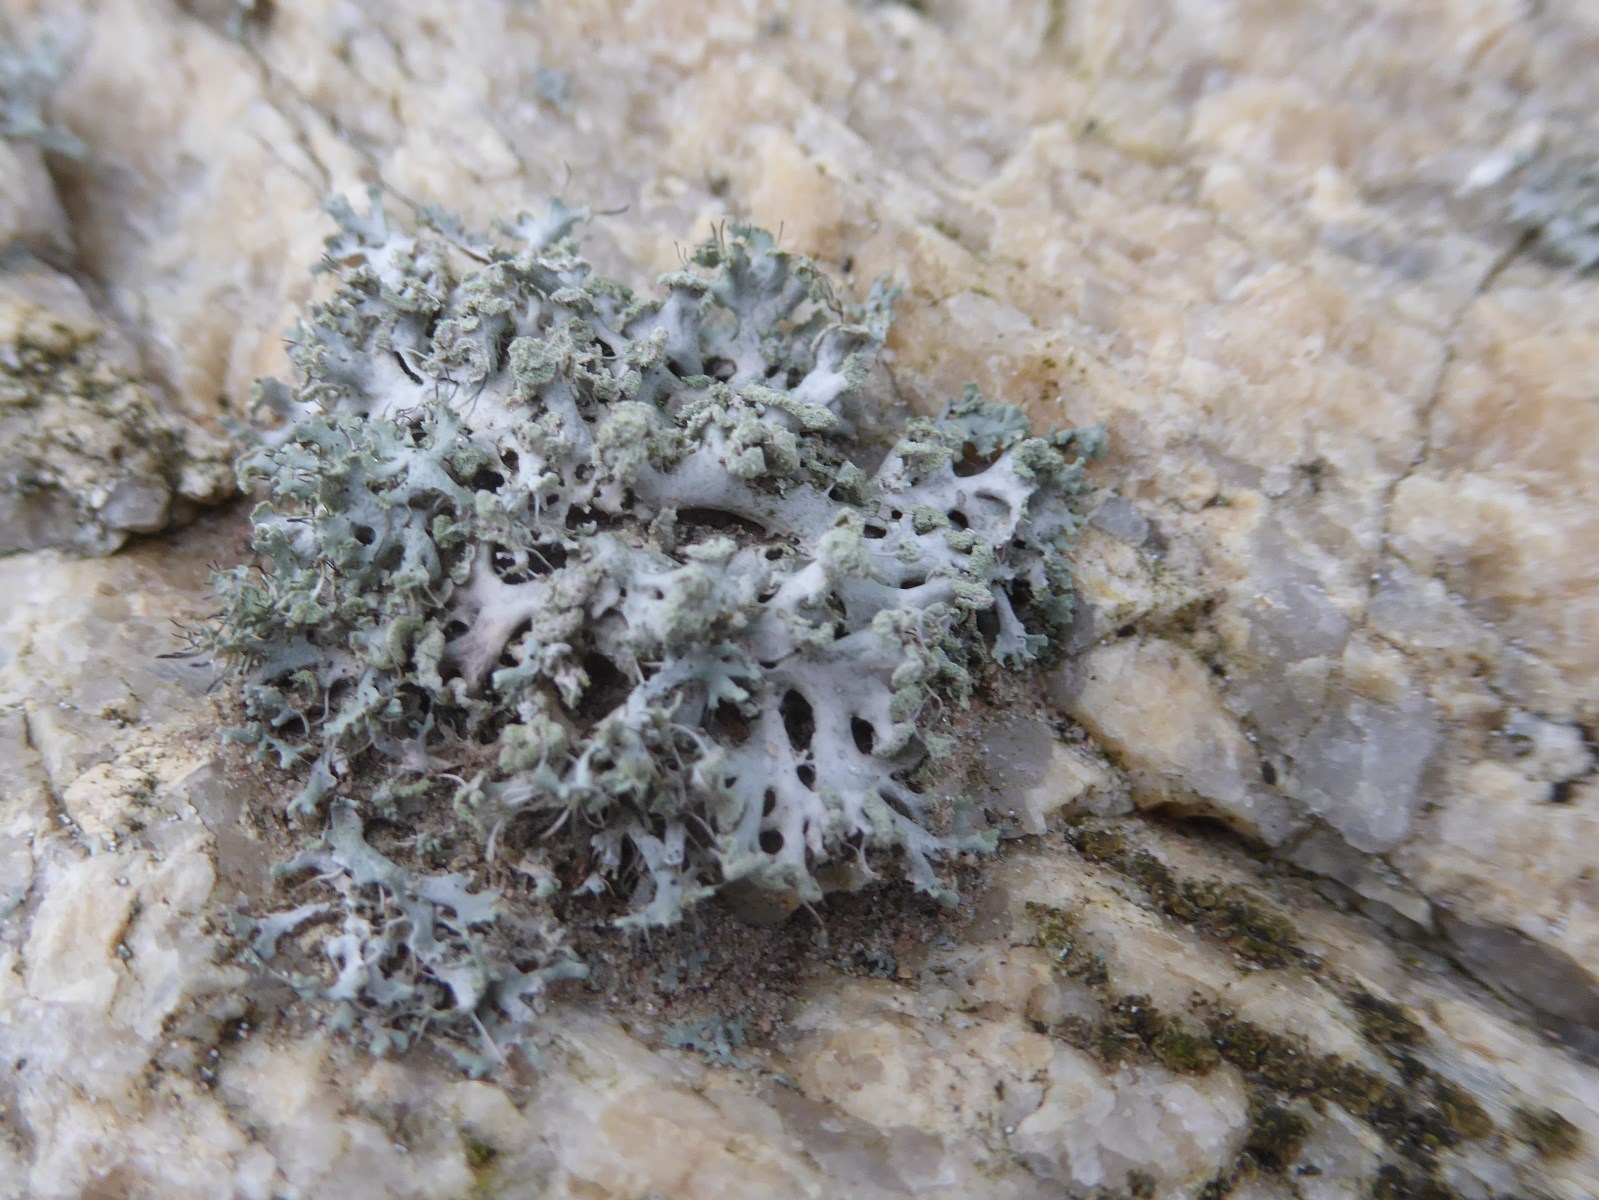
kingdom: Fungi
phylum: Ascomycota
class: Lecanoromycetes
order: Caliciales
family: Physciaceae
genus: Physcia
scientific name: Physcia tenella
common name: spæd rosetlav
